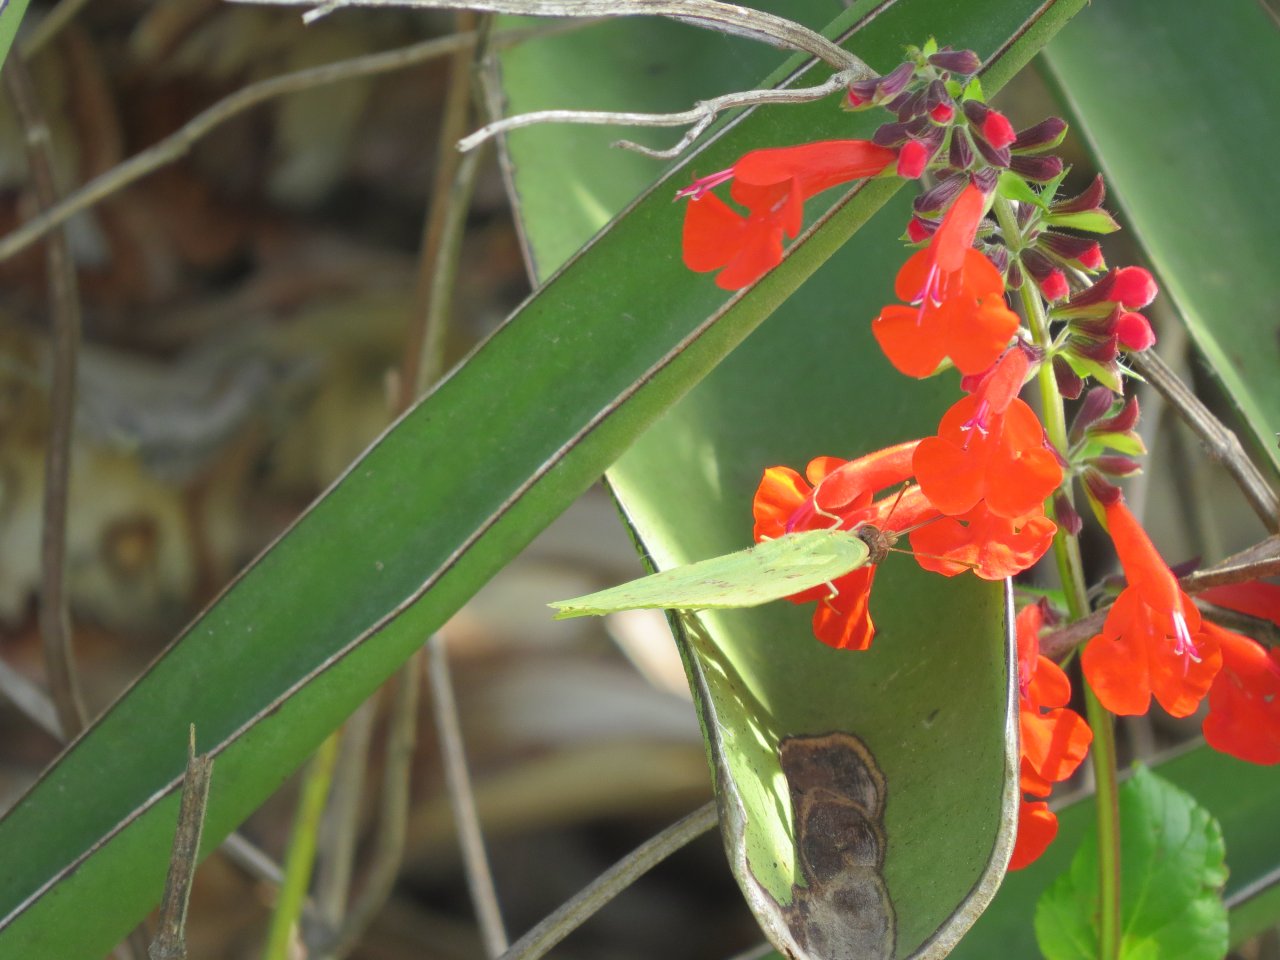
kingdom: Animalia
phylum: Arthropoda
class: Insecta
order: Lepidoptera
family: Pieridae
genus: Phoebis
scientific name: Phoebis sennae
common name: Cloudless Sulphur
